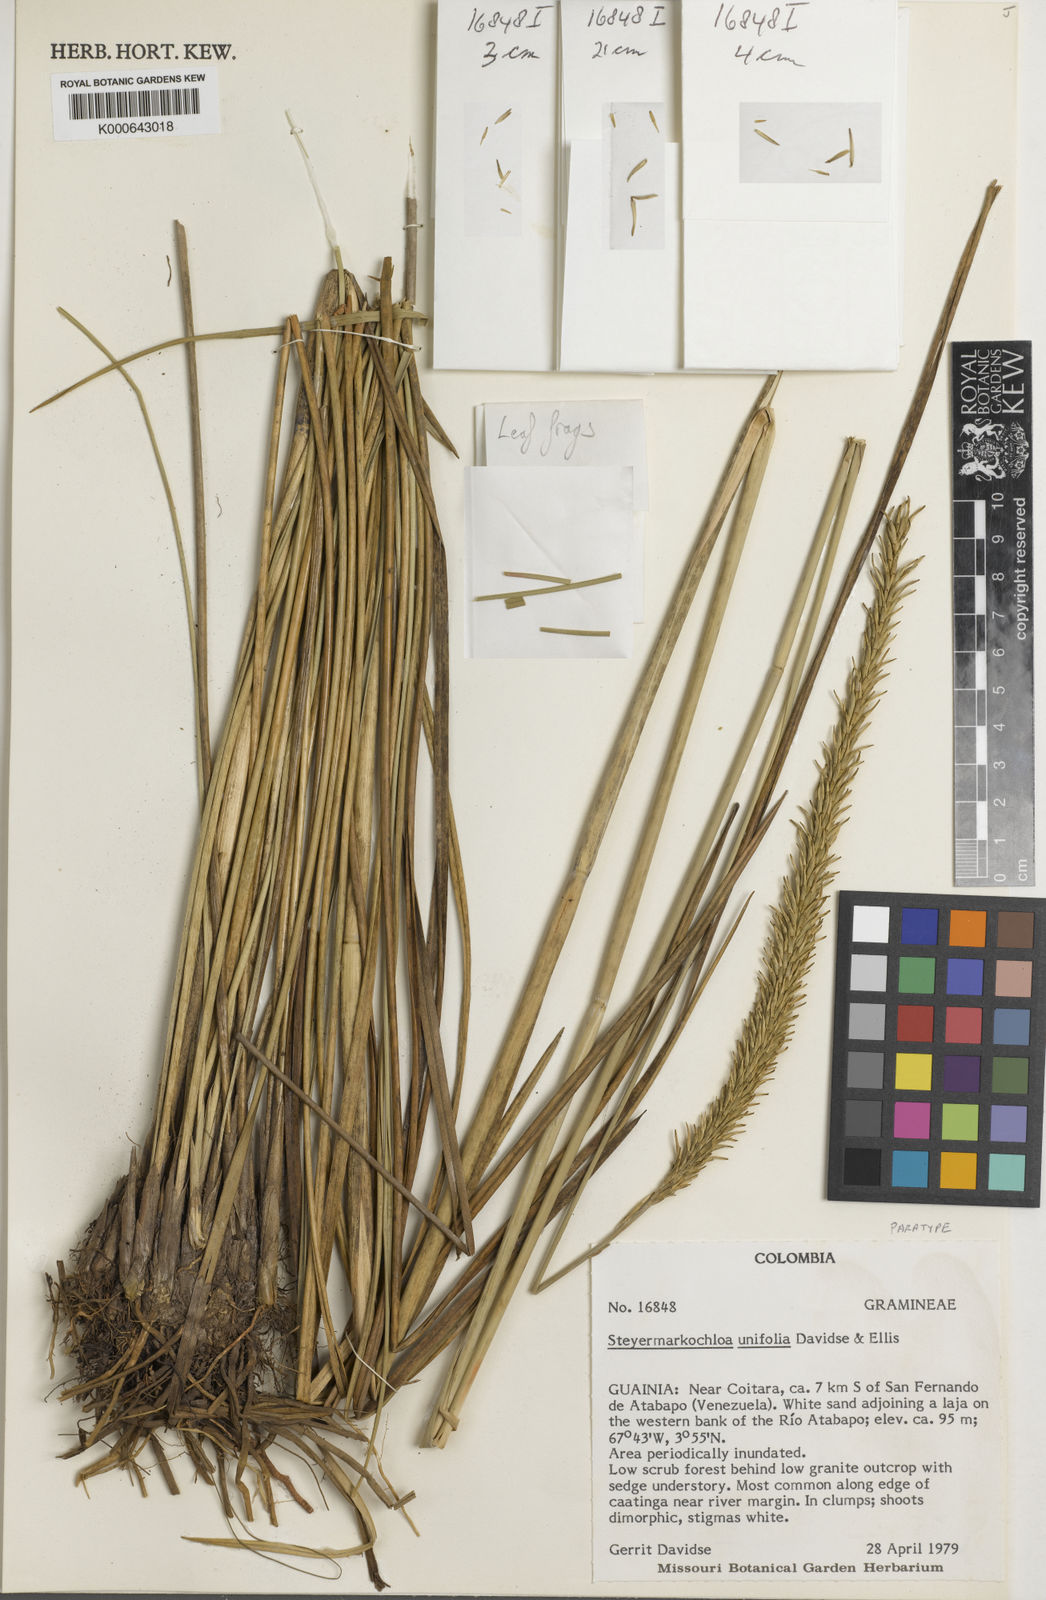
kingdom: Plantae
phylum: Tracheophyta
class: Liliopsida
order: Poales
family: Poaceae
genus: Steyermarkochloa
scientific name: Steyermarkochloa angustifolia
